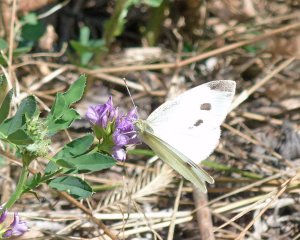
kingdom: Animalia
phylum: Arthropoda
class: Insecta
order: Lepidoptera
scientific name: Lepidoptera
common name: Butterflies
